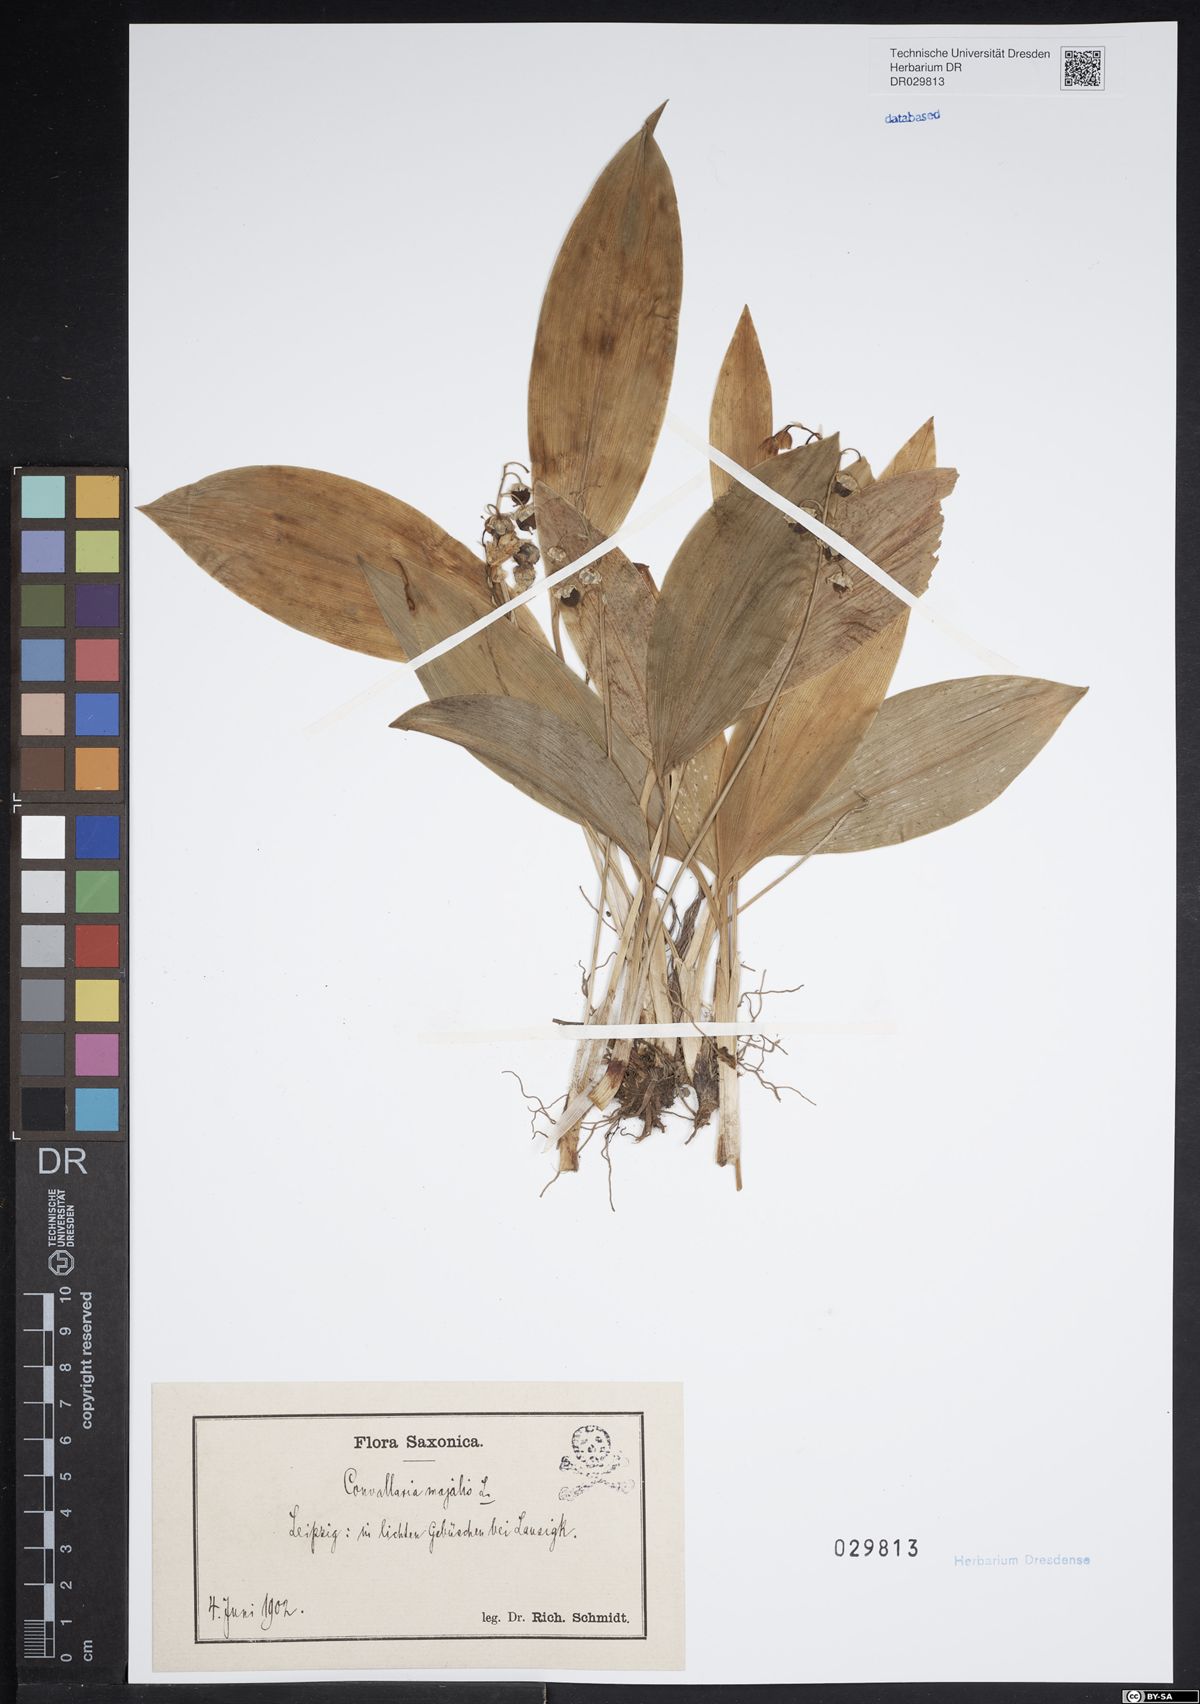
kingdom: Plantae
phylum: Tracheophyta
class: Liliopsida
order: Asparagales
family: Asparagaceae
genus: Convallaria
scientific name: Convallaria majalis
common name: Lily-of-the-valley
